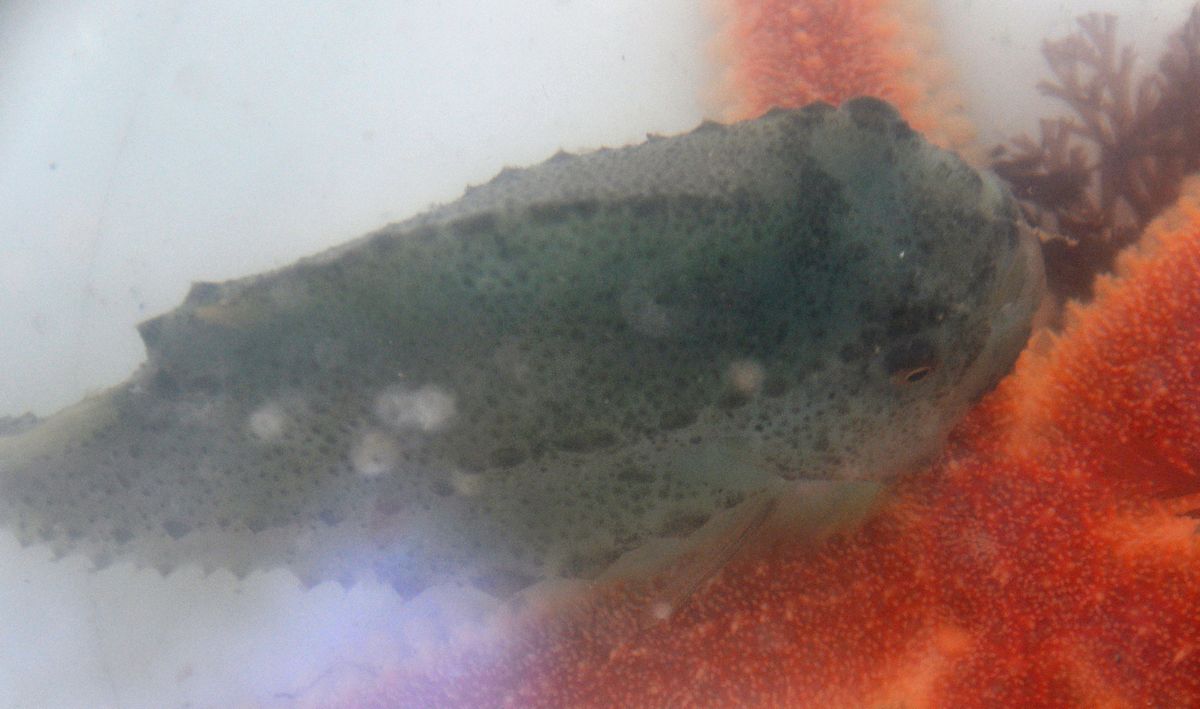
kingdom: Animalia
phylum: Chordata
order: Scorpaeniformes
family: Cyclopteridae
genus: Cyclopterus
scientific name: Cyclopterus lumpus
